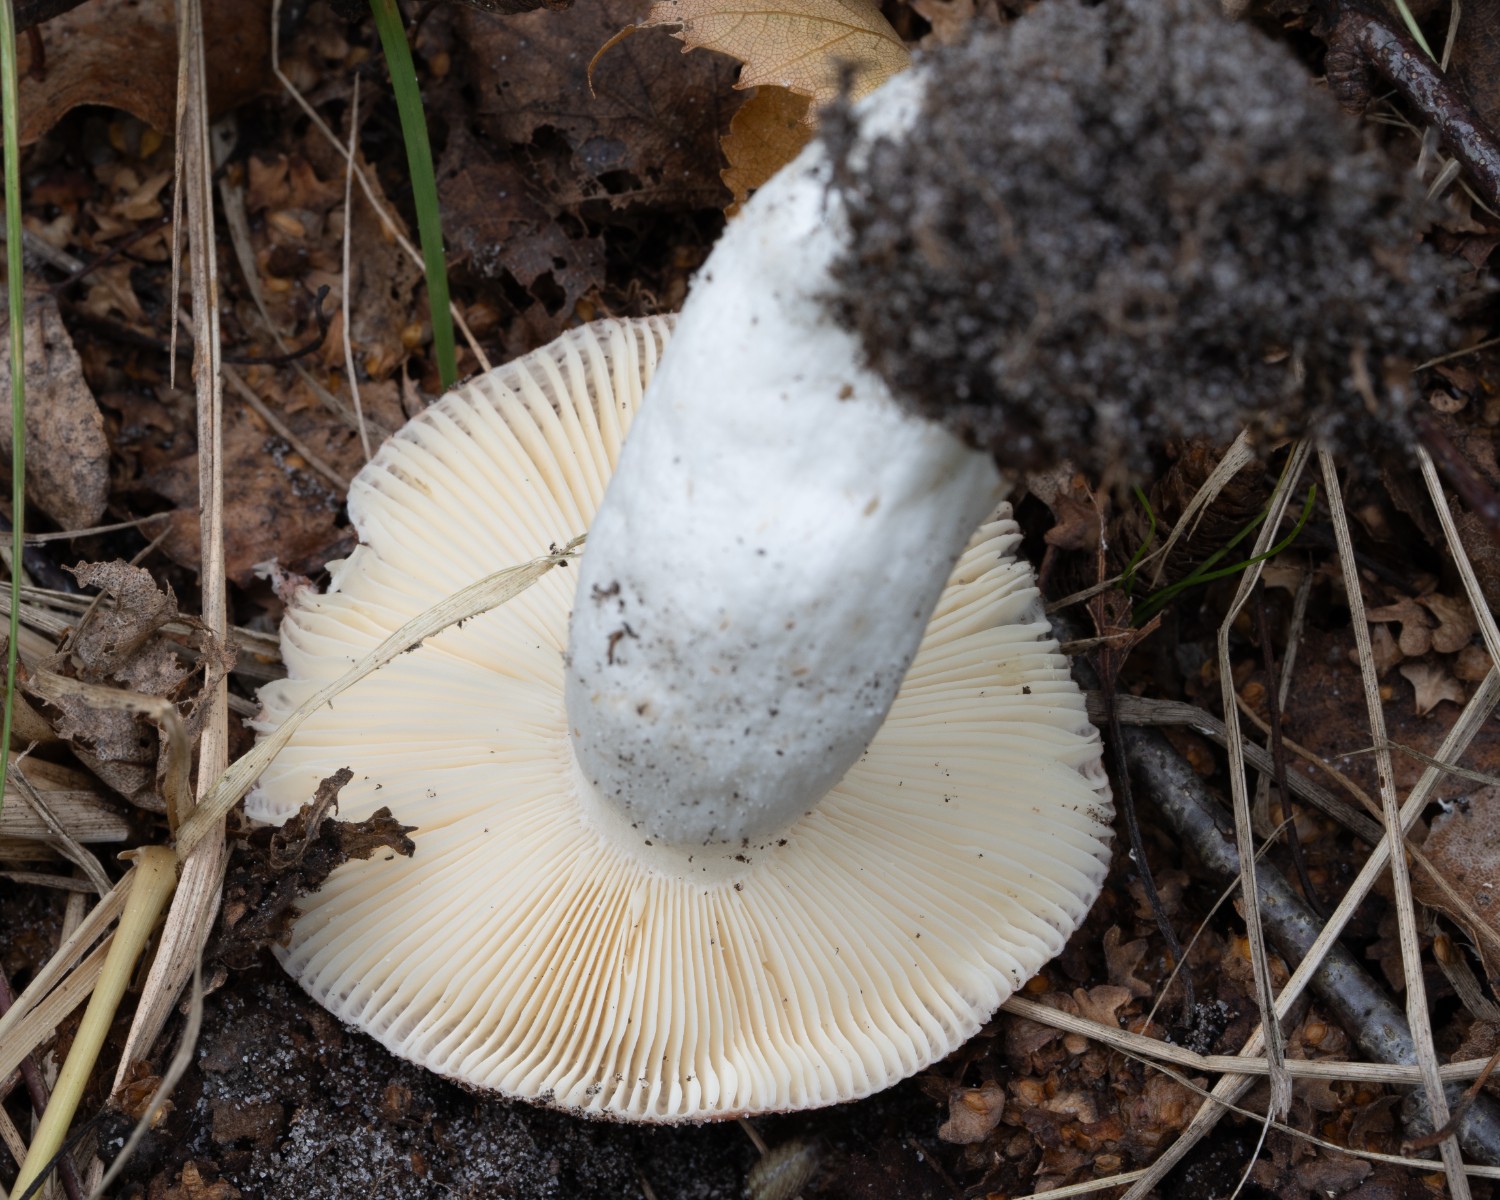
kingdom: Fungi
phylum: Basidiomycota
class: Agaricomycetes
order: Russulales
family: Russulaceae
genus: Russula
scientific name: Russula velenovskyi
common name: orangerød skørhat
